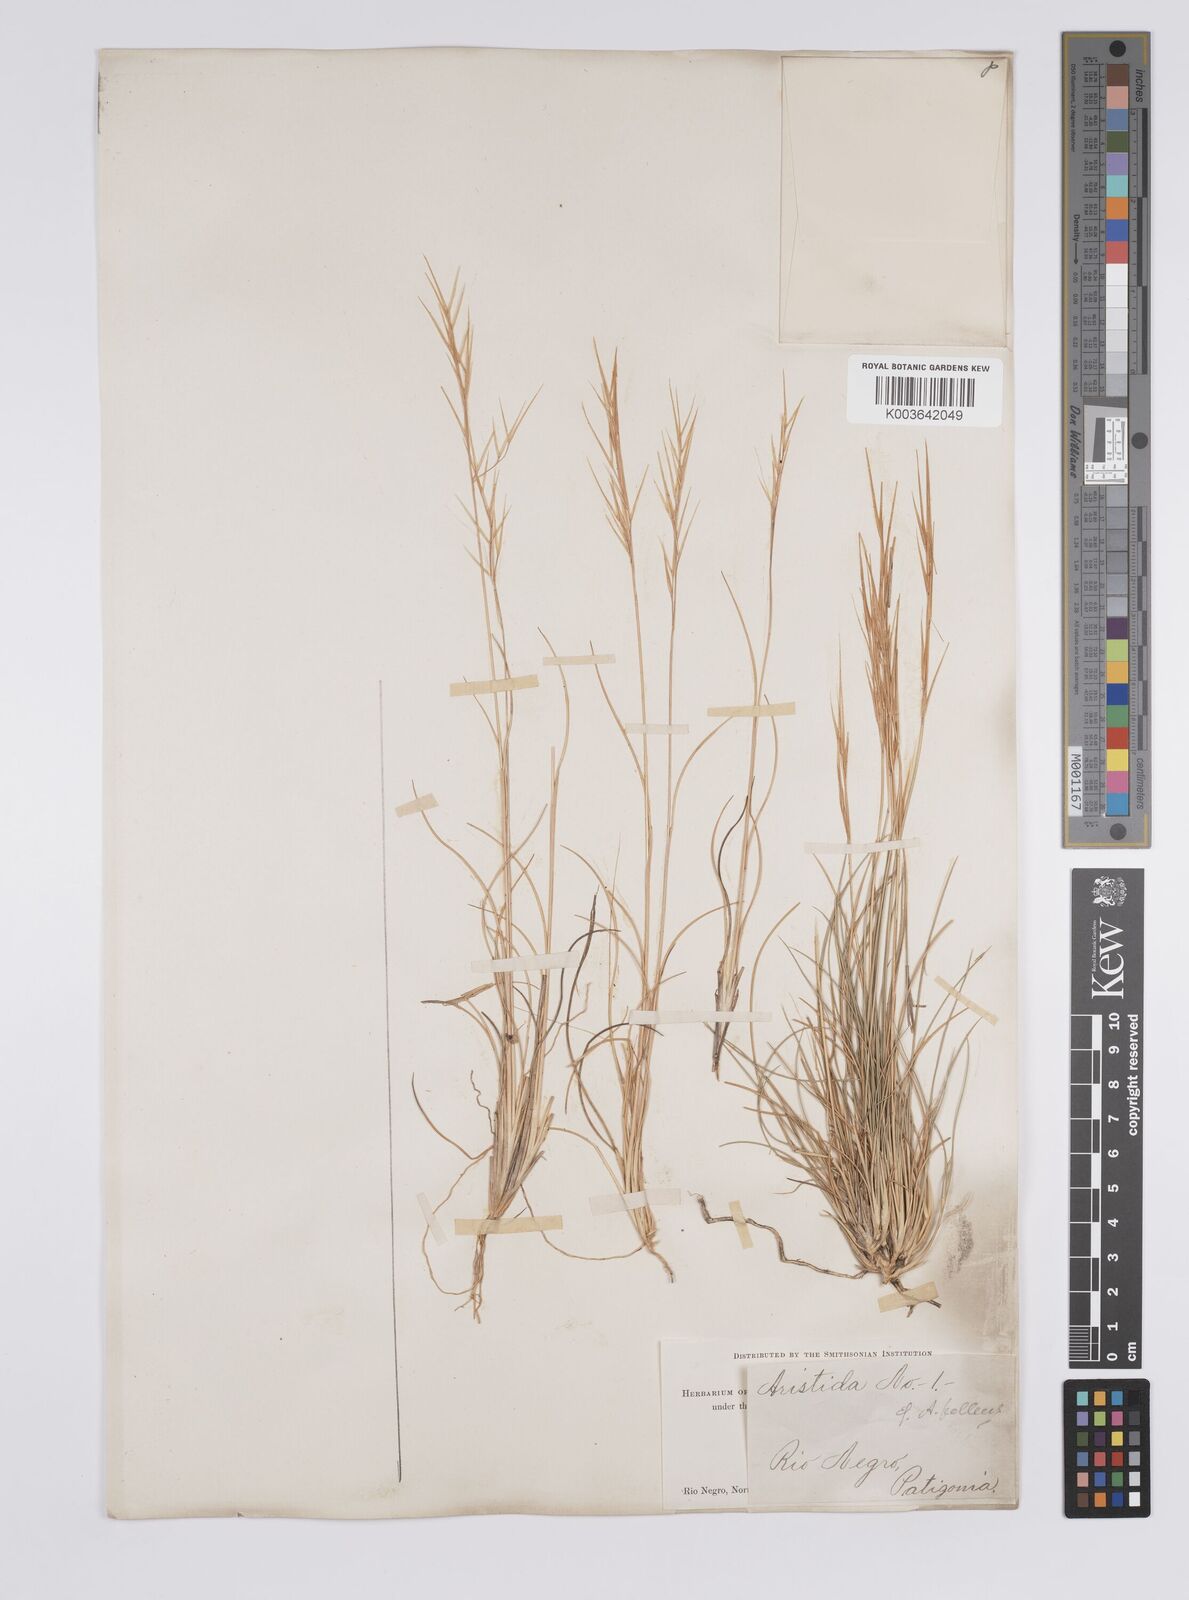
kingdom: Plantae
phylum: Tracheophyta
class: Liliopsida
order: Poales
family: Poaceae
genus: Aristida
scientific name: Aristida pallens
